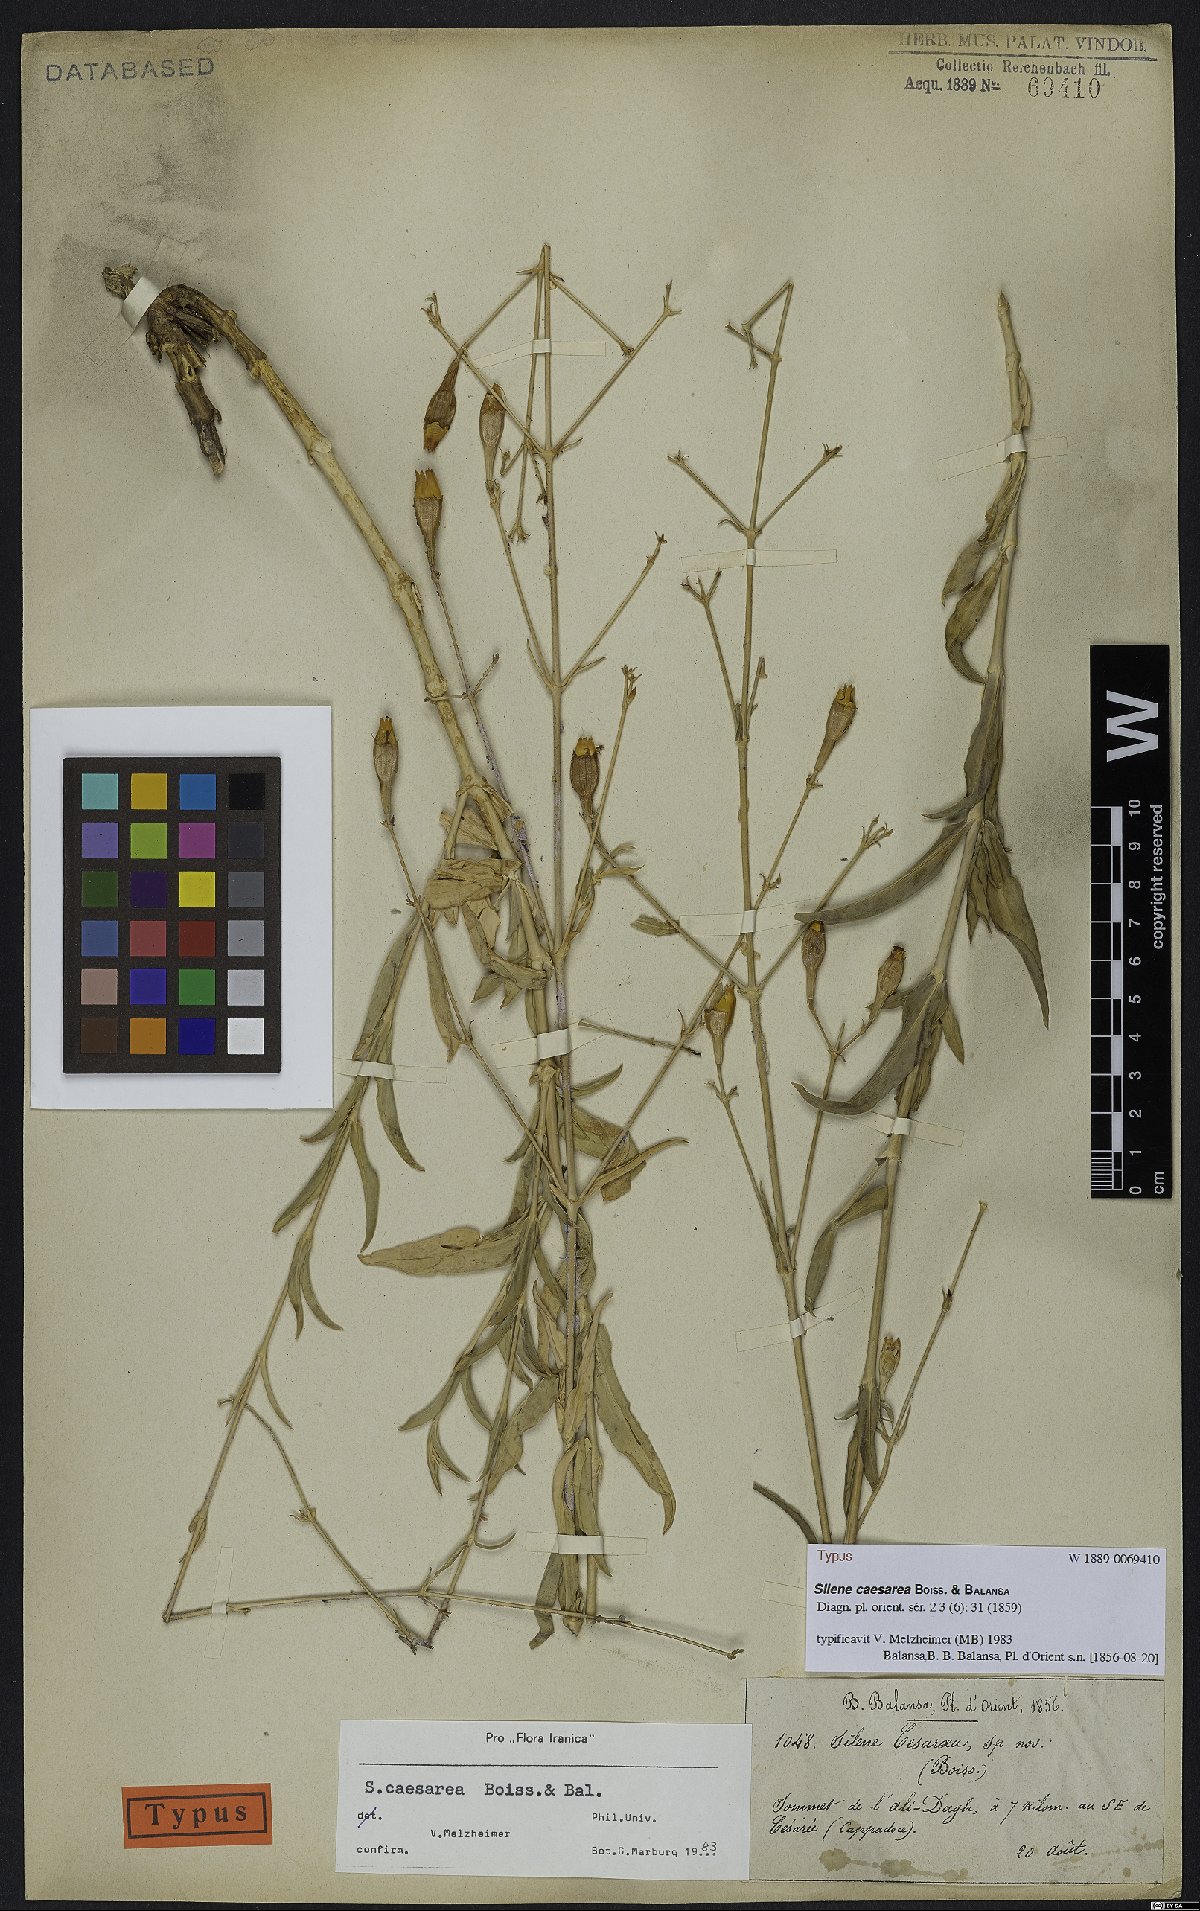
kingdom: Plantae
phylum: Tracheophyta
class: Magnoliopsida
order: Caryophyllales
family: Caryophyllaceae
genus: Silene
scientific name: Silene caesarea
